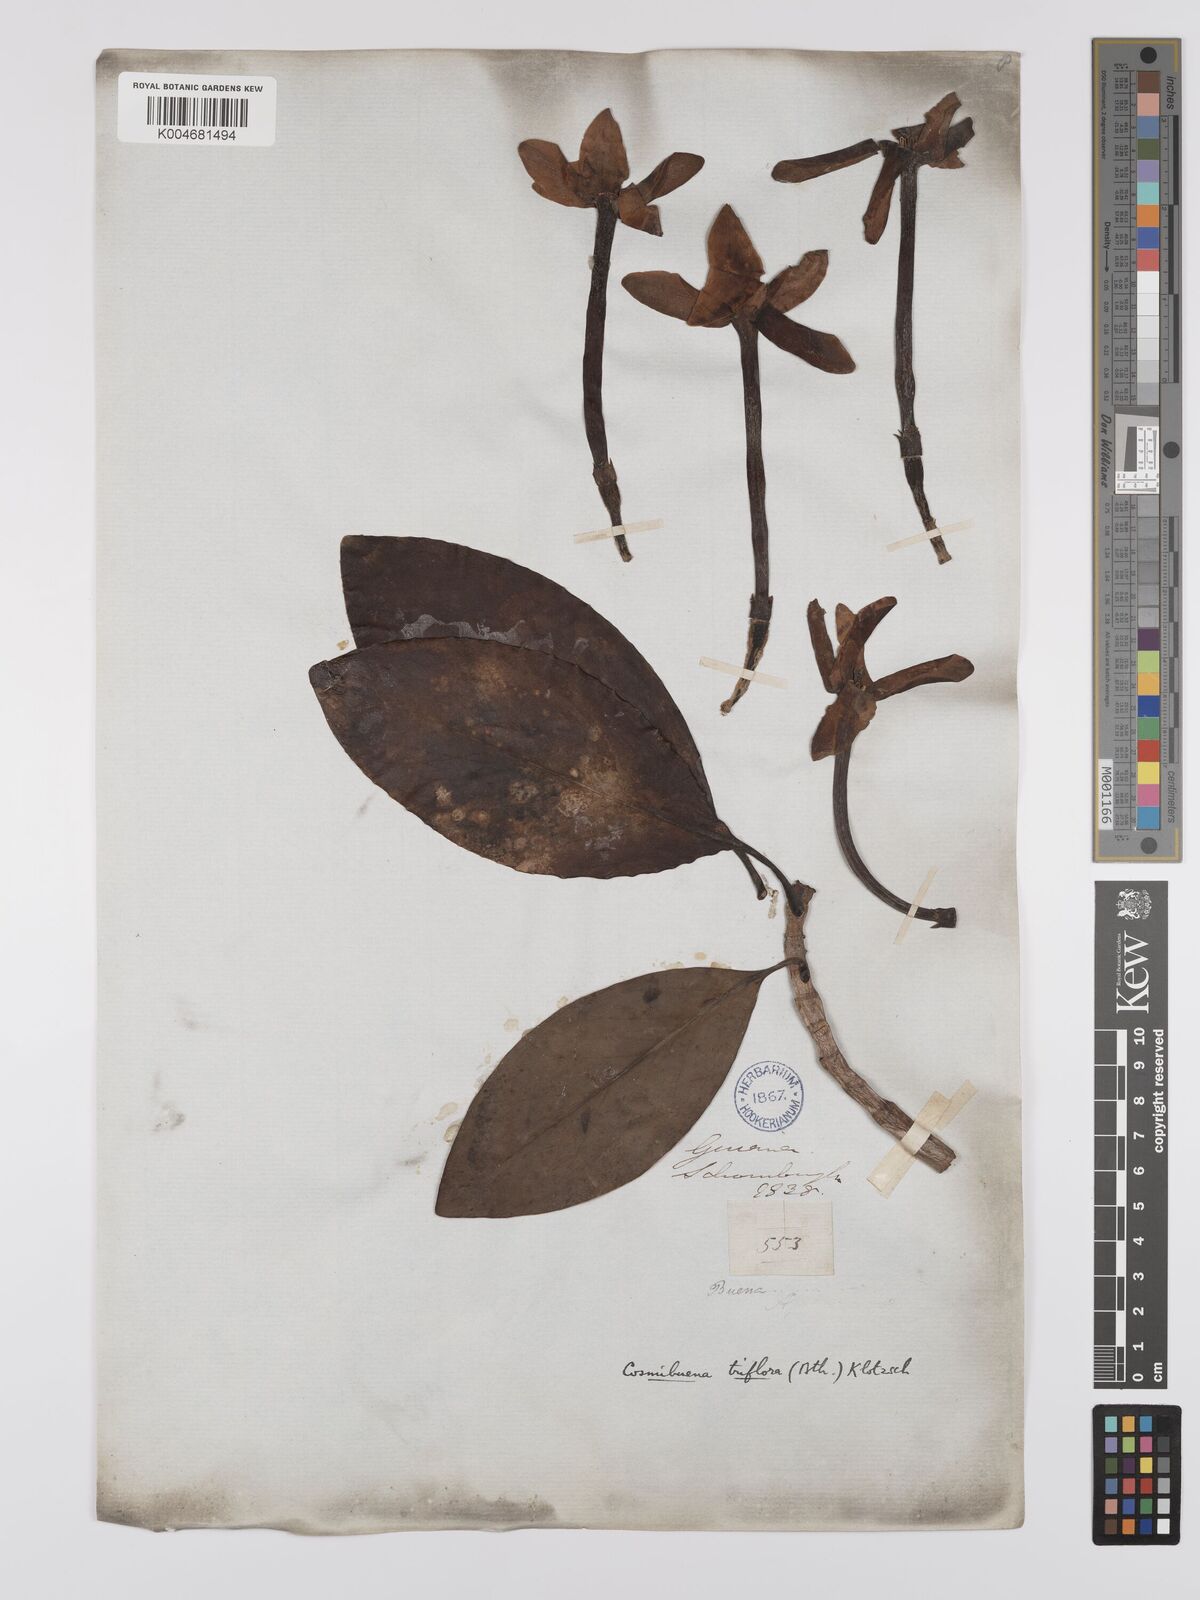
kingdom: Plantae
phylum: Tracheophyta
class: Magnoliopsida
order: Gentianales
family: Rubiaceae
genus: Cosmibuena
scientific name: Cosmibuena grandiflora
